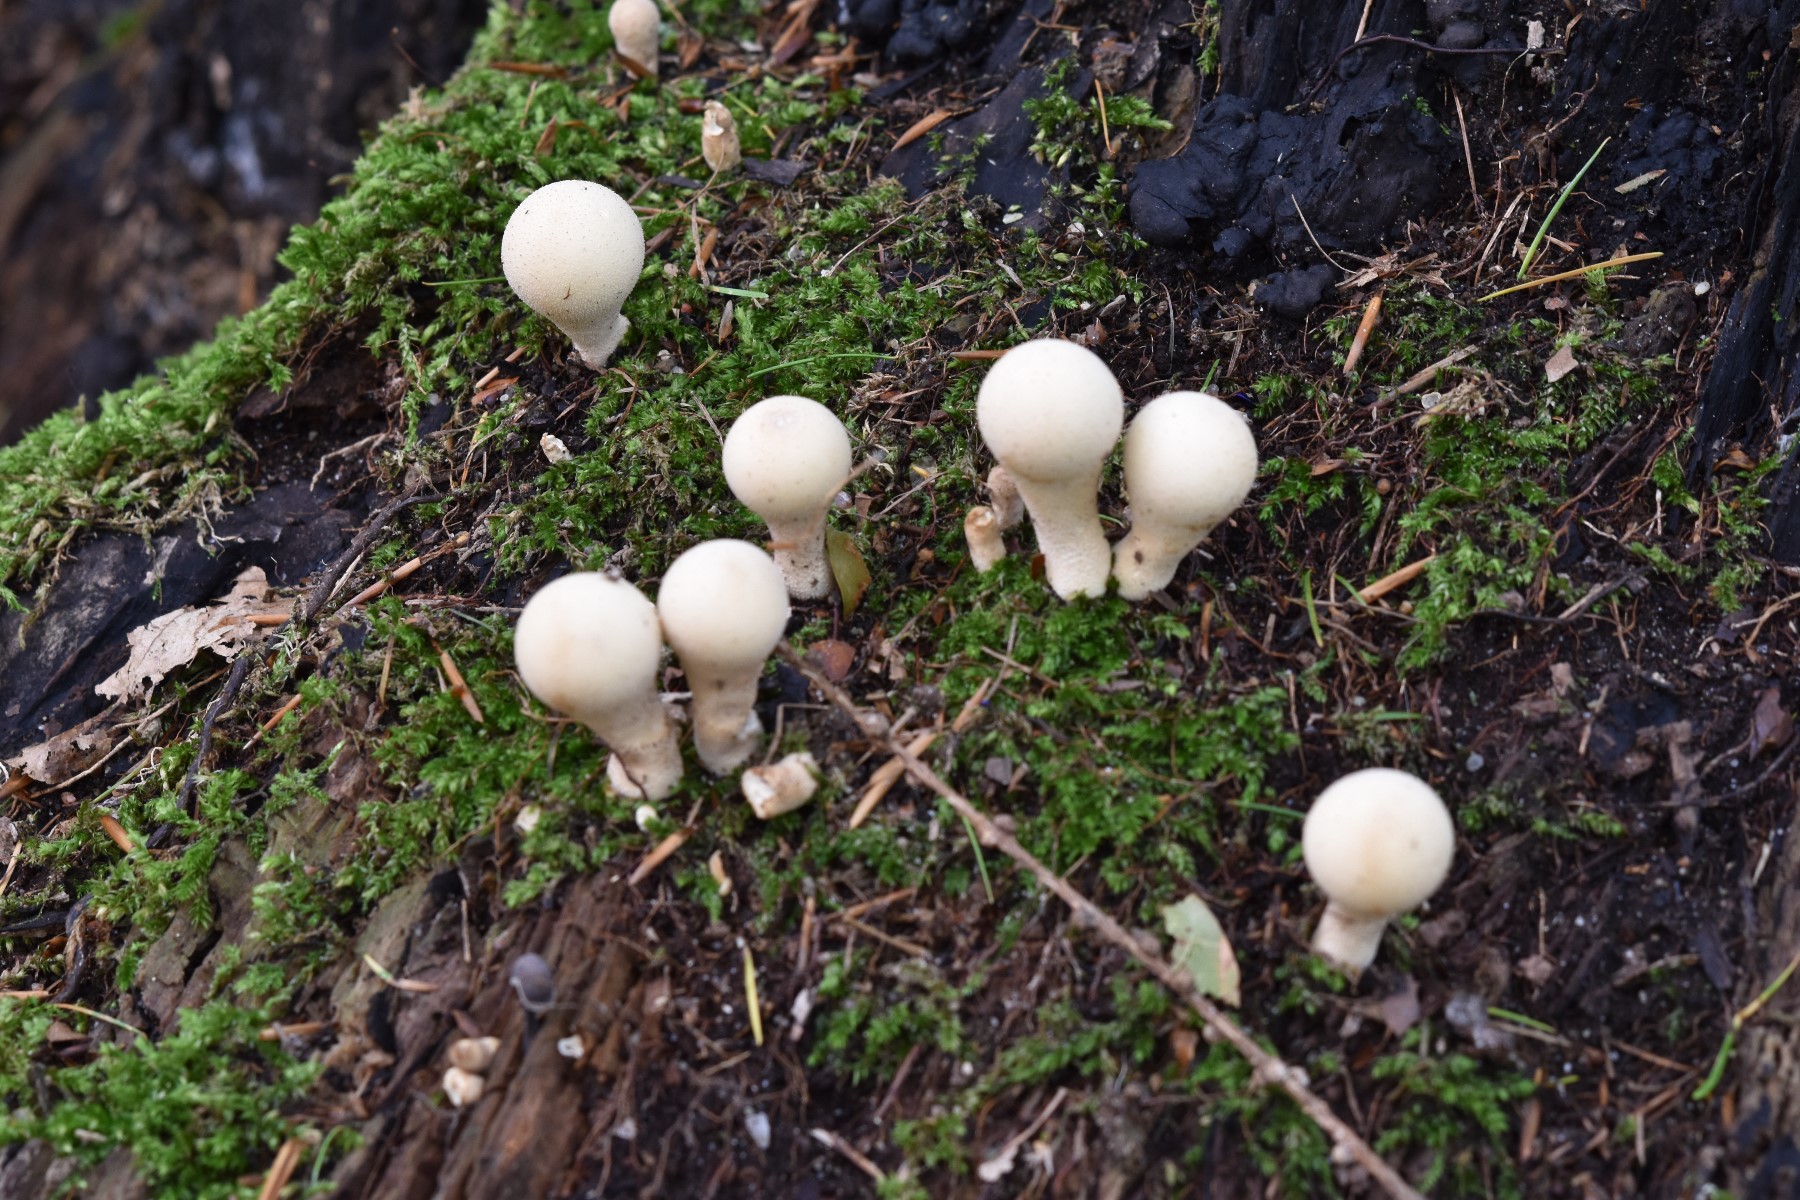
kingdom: Fungi
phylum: Basidiomycota
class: Agaricomycetes
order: Agaricales
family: Lycoperdaceae
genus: Apioperdon
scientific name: Apioperdon pyriforme
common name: pære-støvbold
